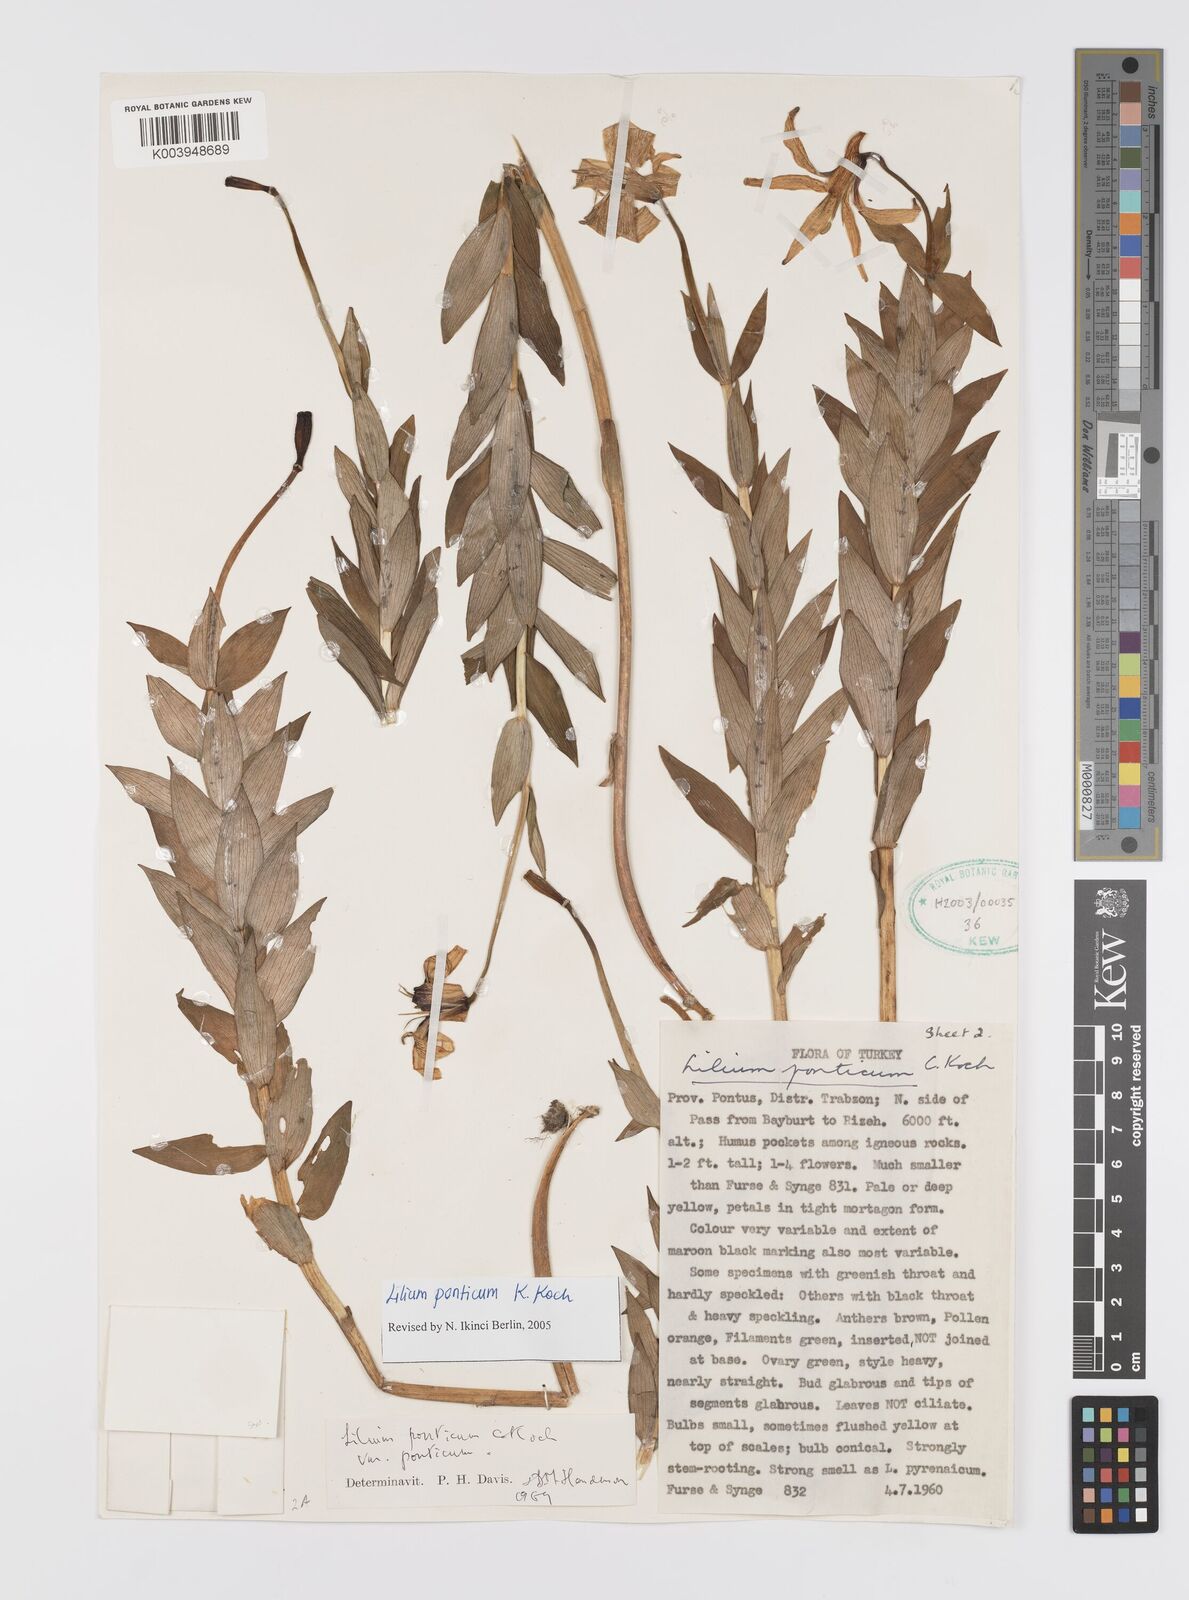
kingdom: Plantae
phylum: Tracheophyta
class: Liliopsida
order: Liliales
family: Liliaceae
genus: Lilium
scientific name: Lilium ponticum
